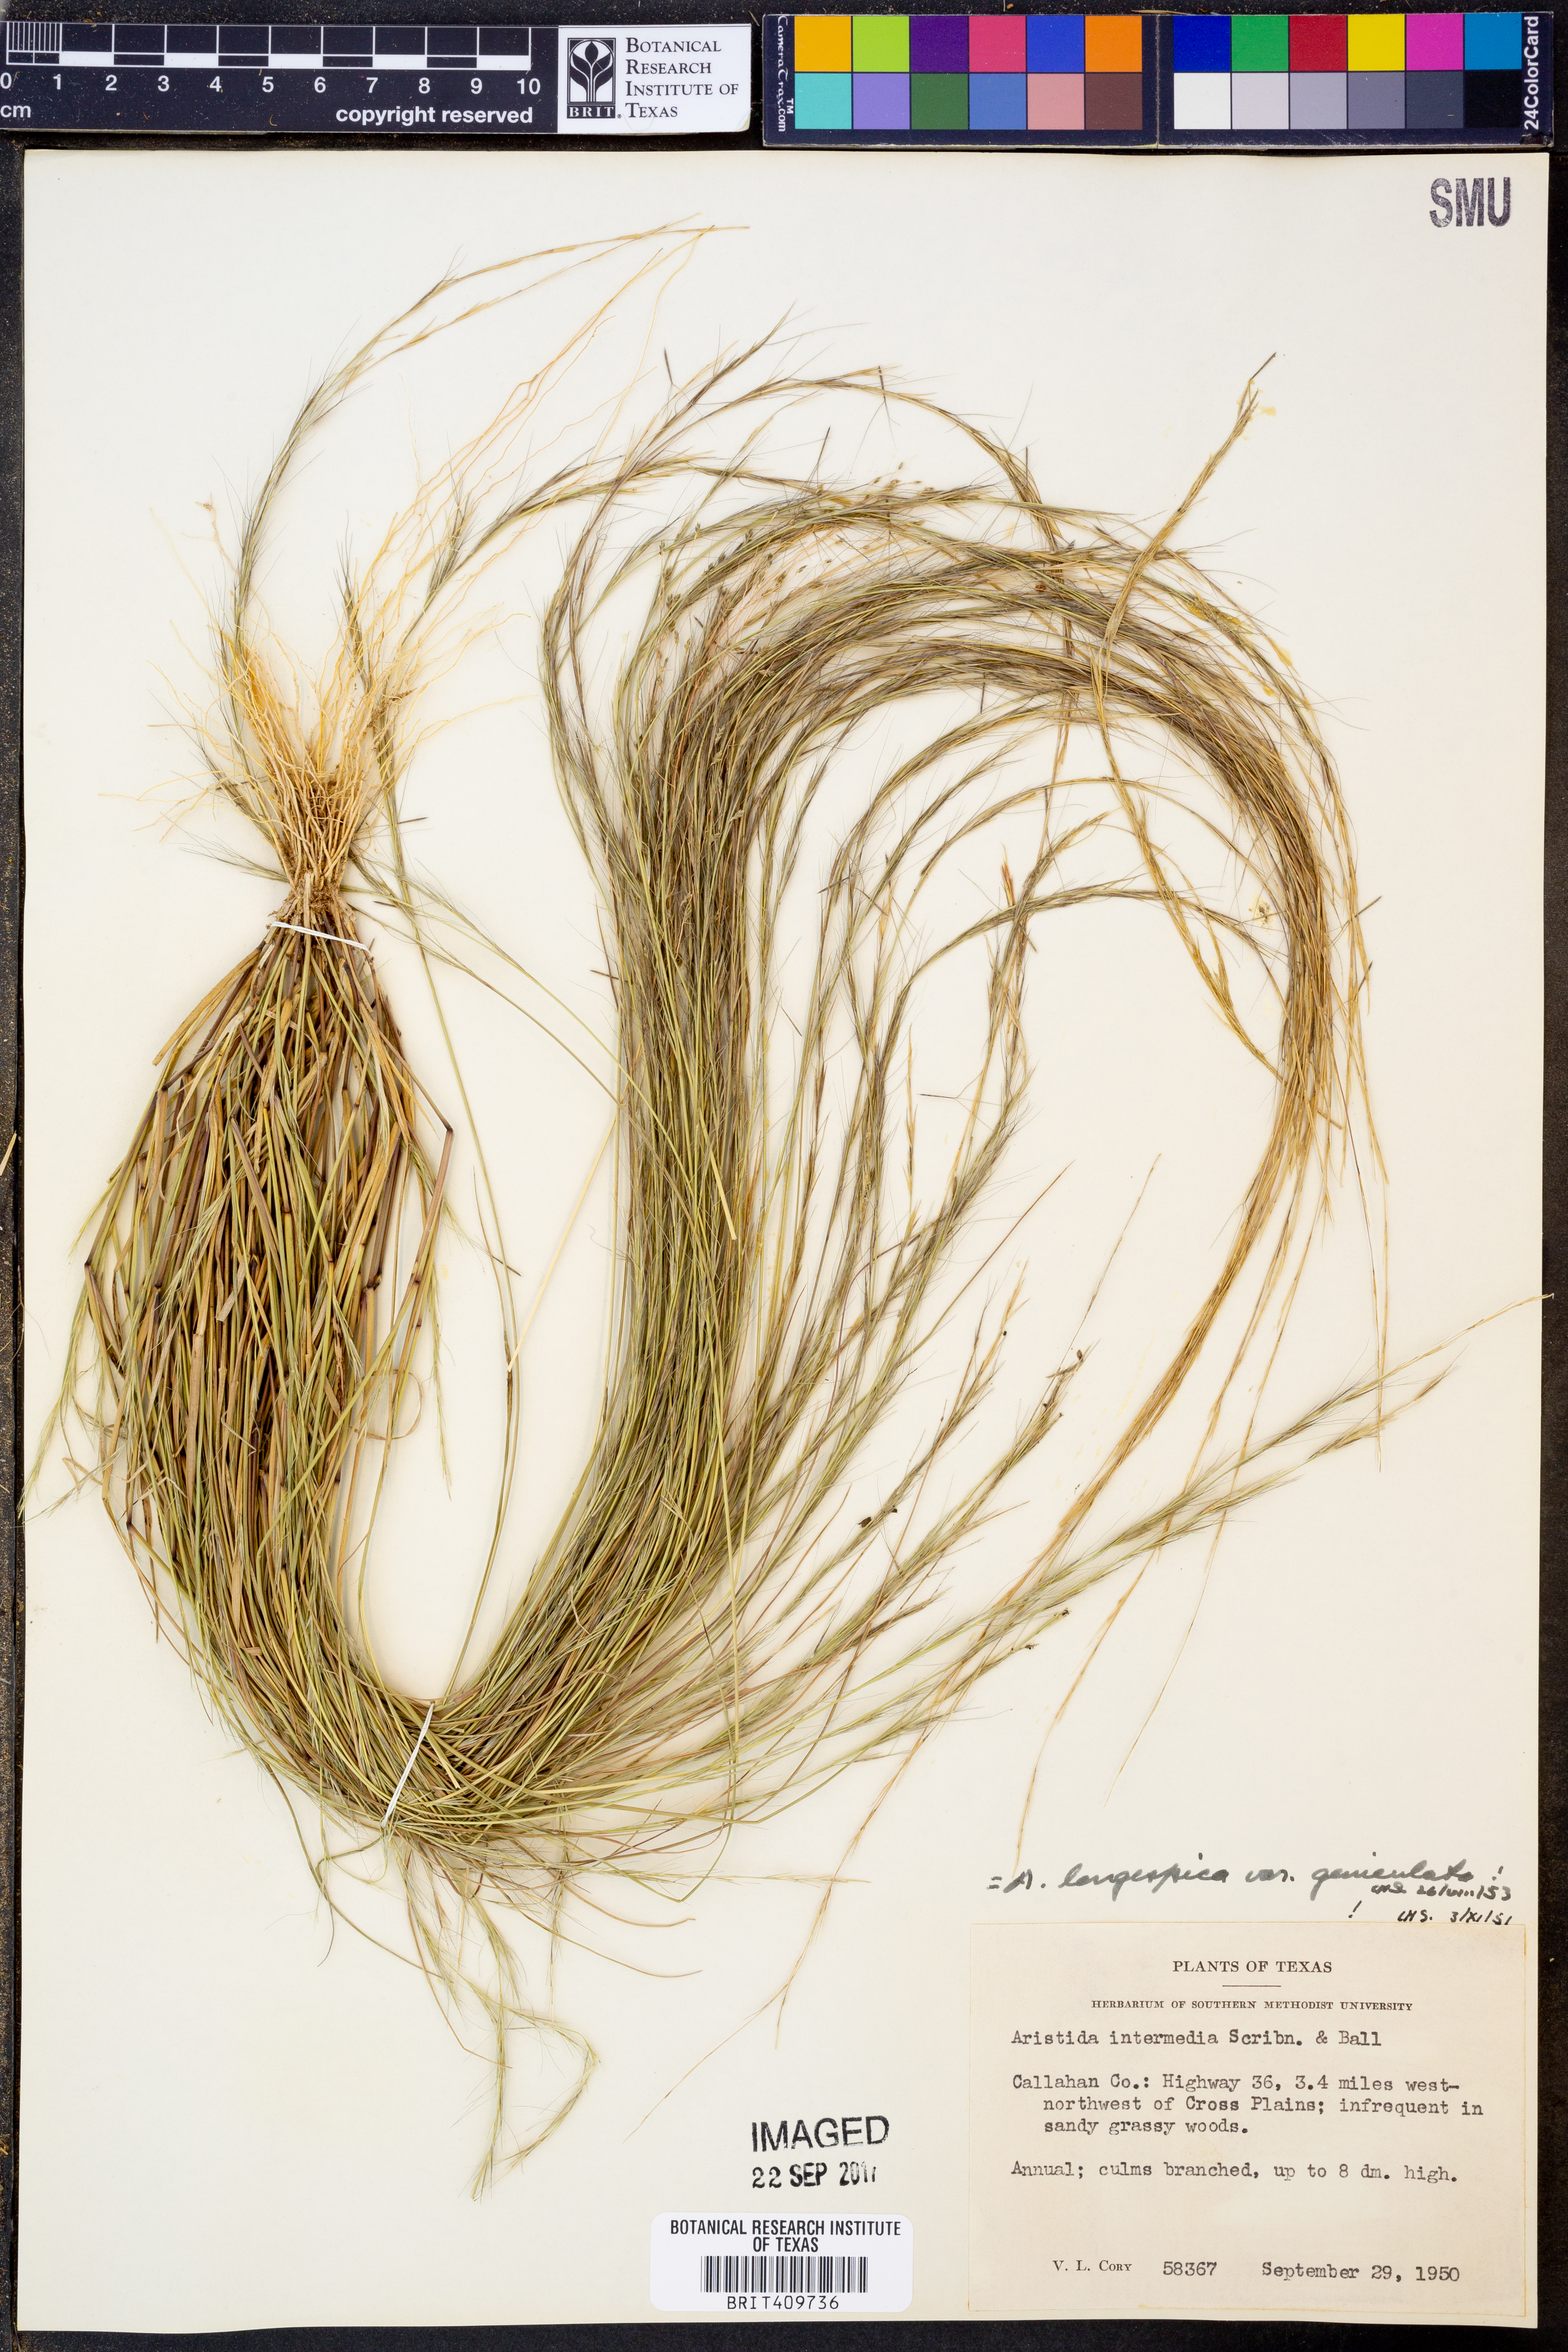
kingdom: Plantae
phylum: Tracheophyta
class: Liliopsida
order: Poales
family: Poaceae
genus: Aristida
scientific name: Aristida longespica
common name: Long-spiked triple-awned grass
